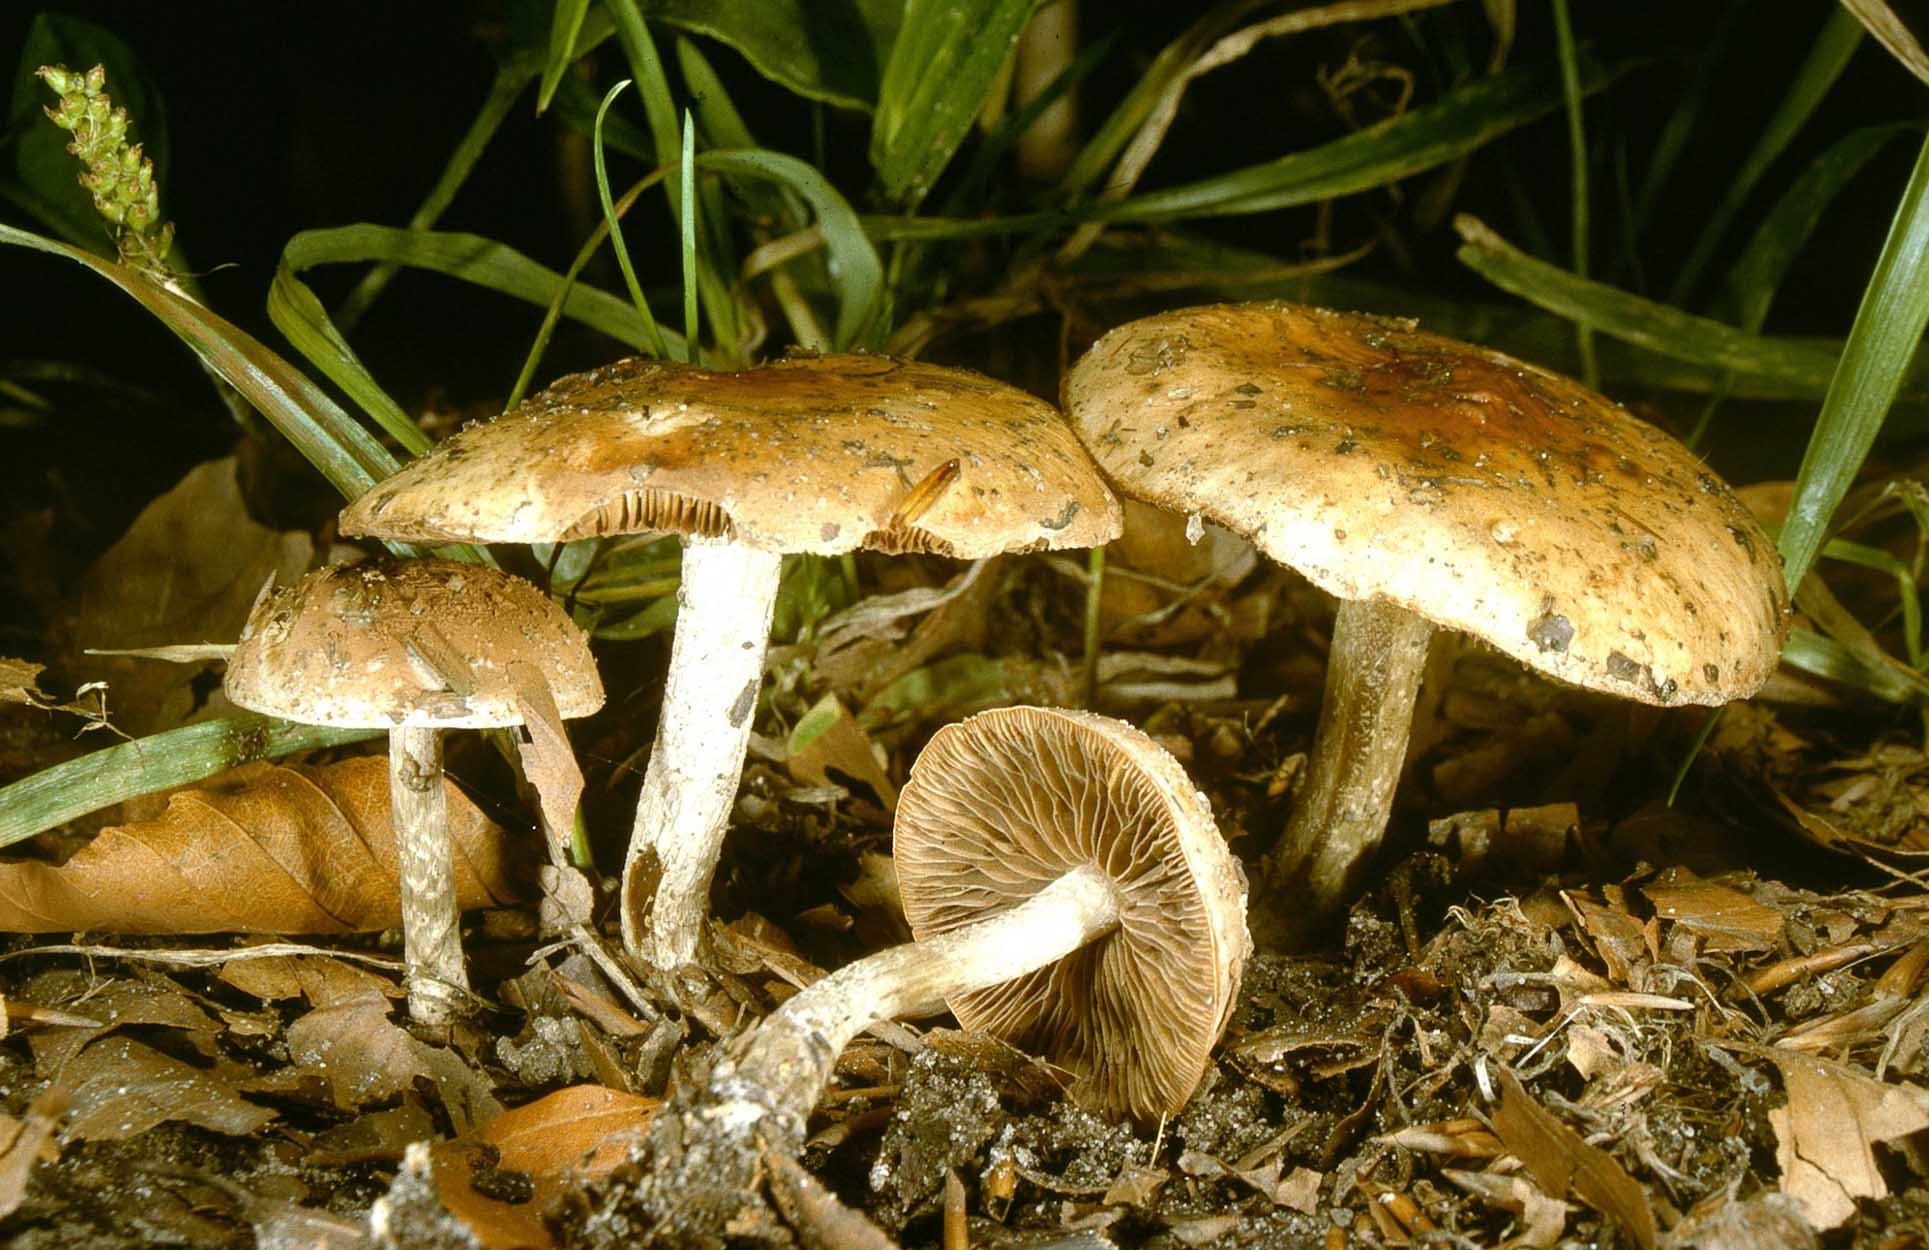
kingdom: Fungi
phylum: Basidiomycota
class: Agaricomycetes
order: Agaricales
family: Hymenogastraceae
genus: Hebeloma
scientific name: Hebeloma sinapizans
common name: ræddike-tåreblad
